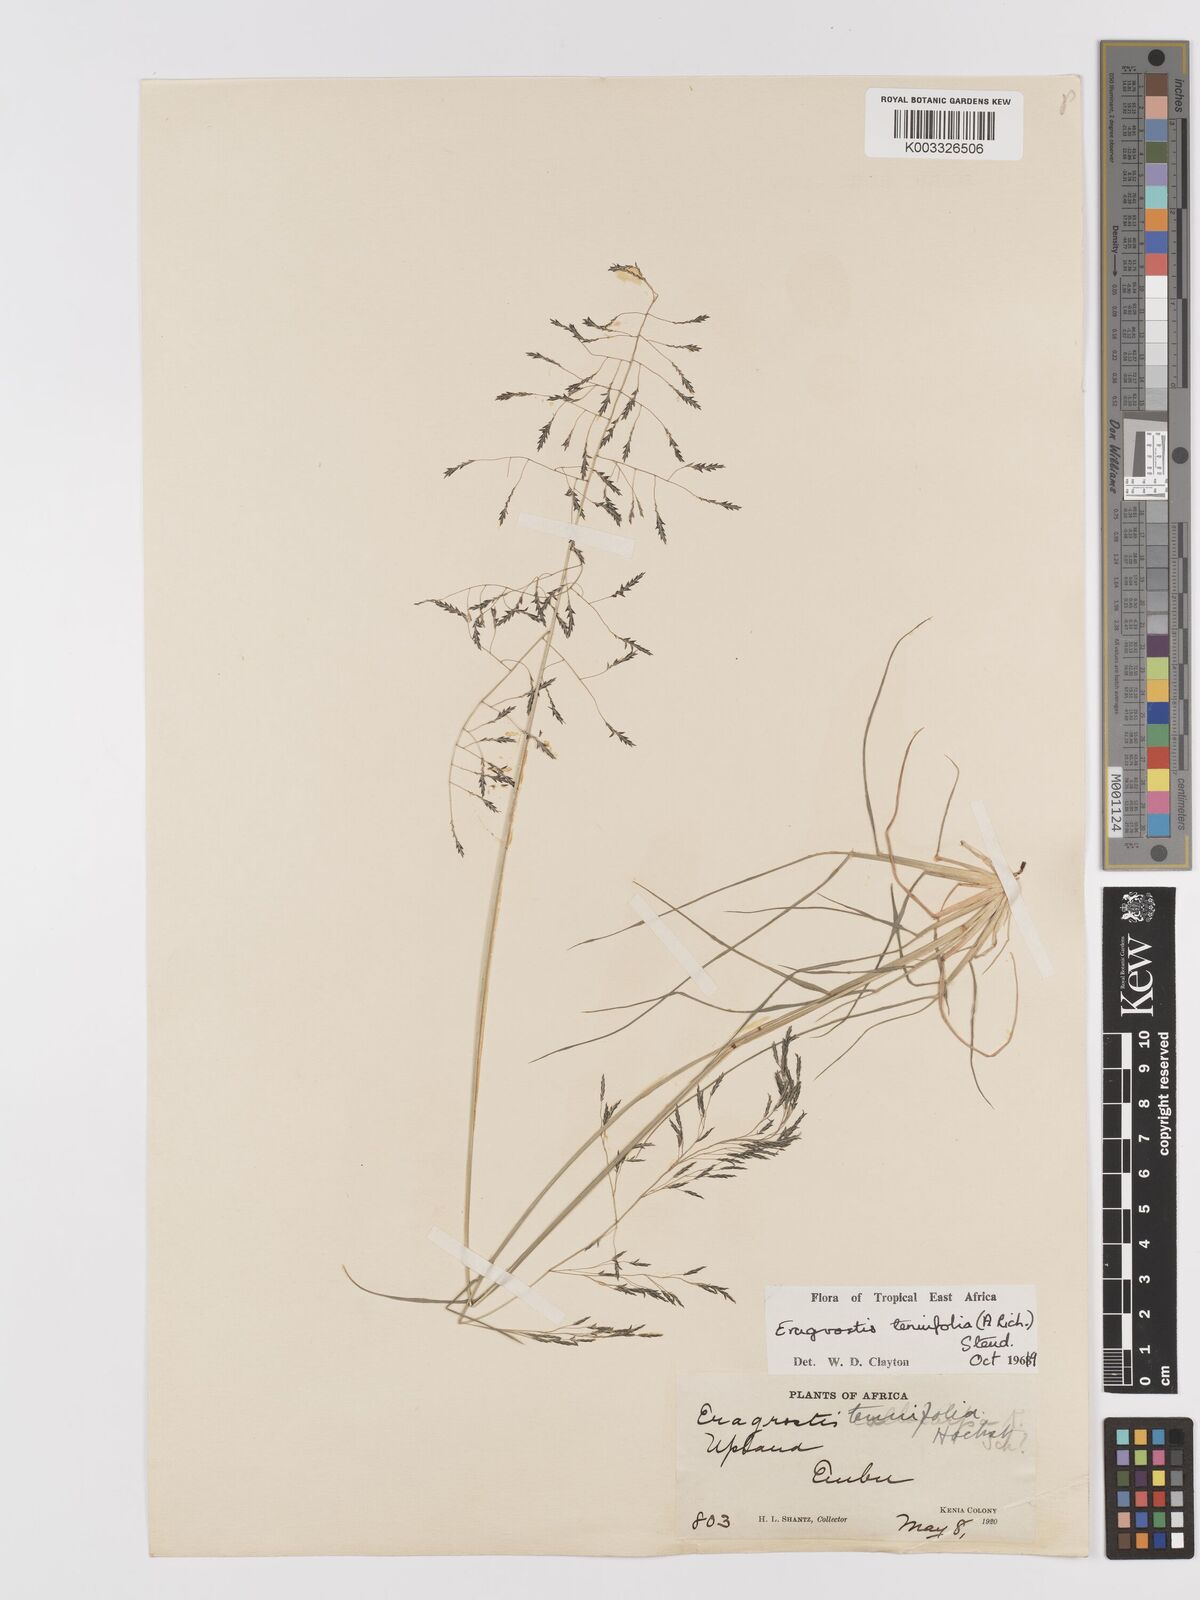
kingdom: Plantae
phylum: Tracheophyta
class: Liliopsida
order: Poales
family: Poaceae
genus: Eragrostis
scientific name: Eragrostis tenuifolia
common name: Elastic grass
